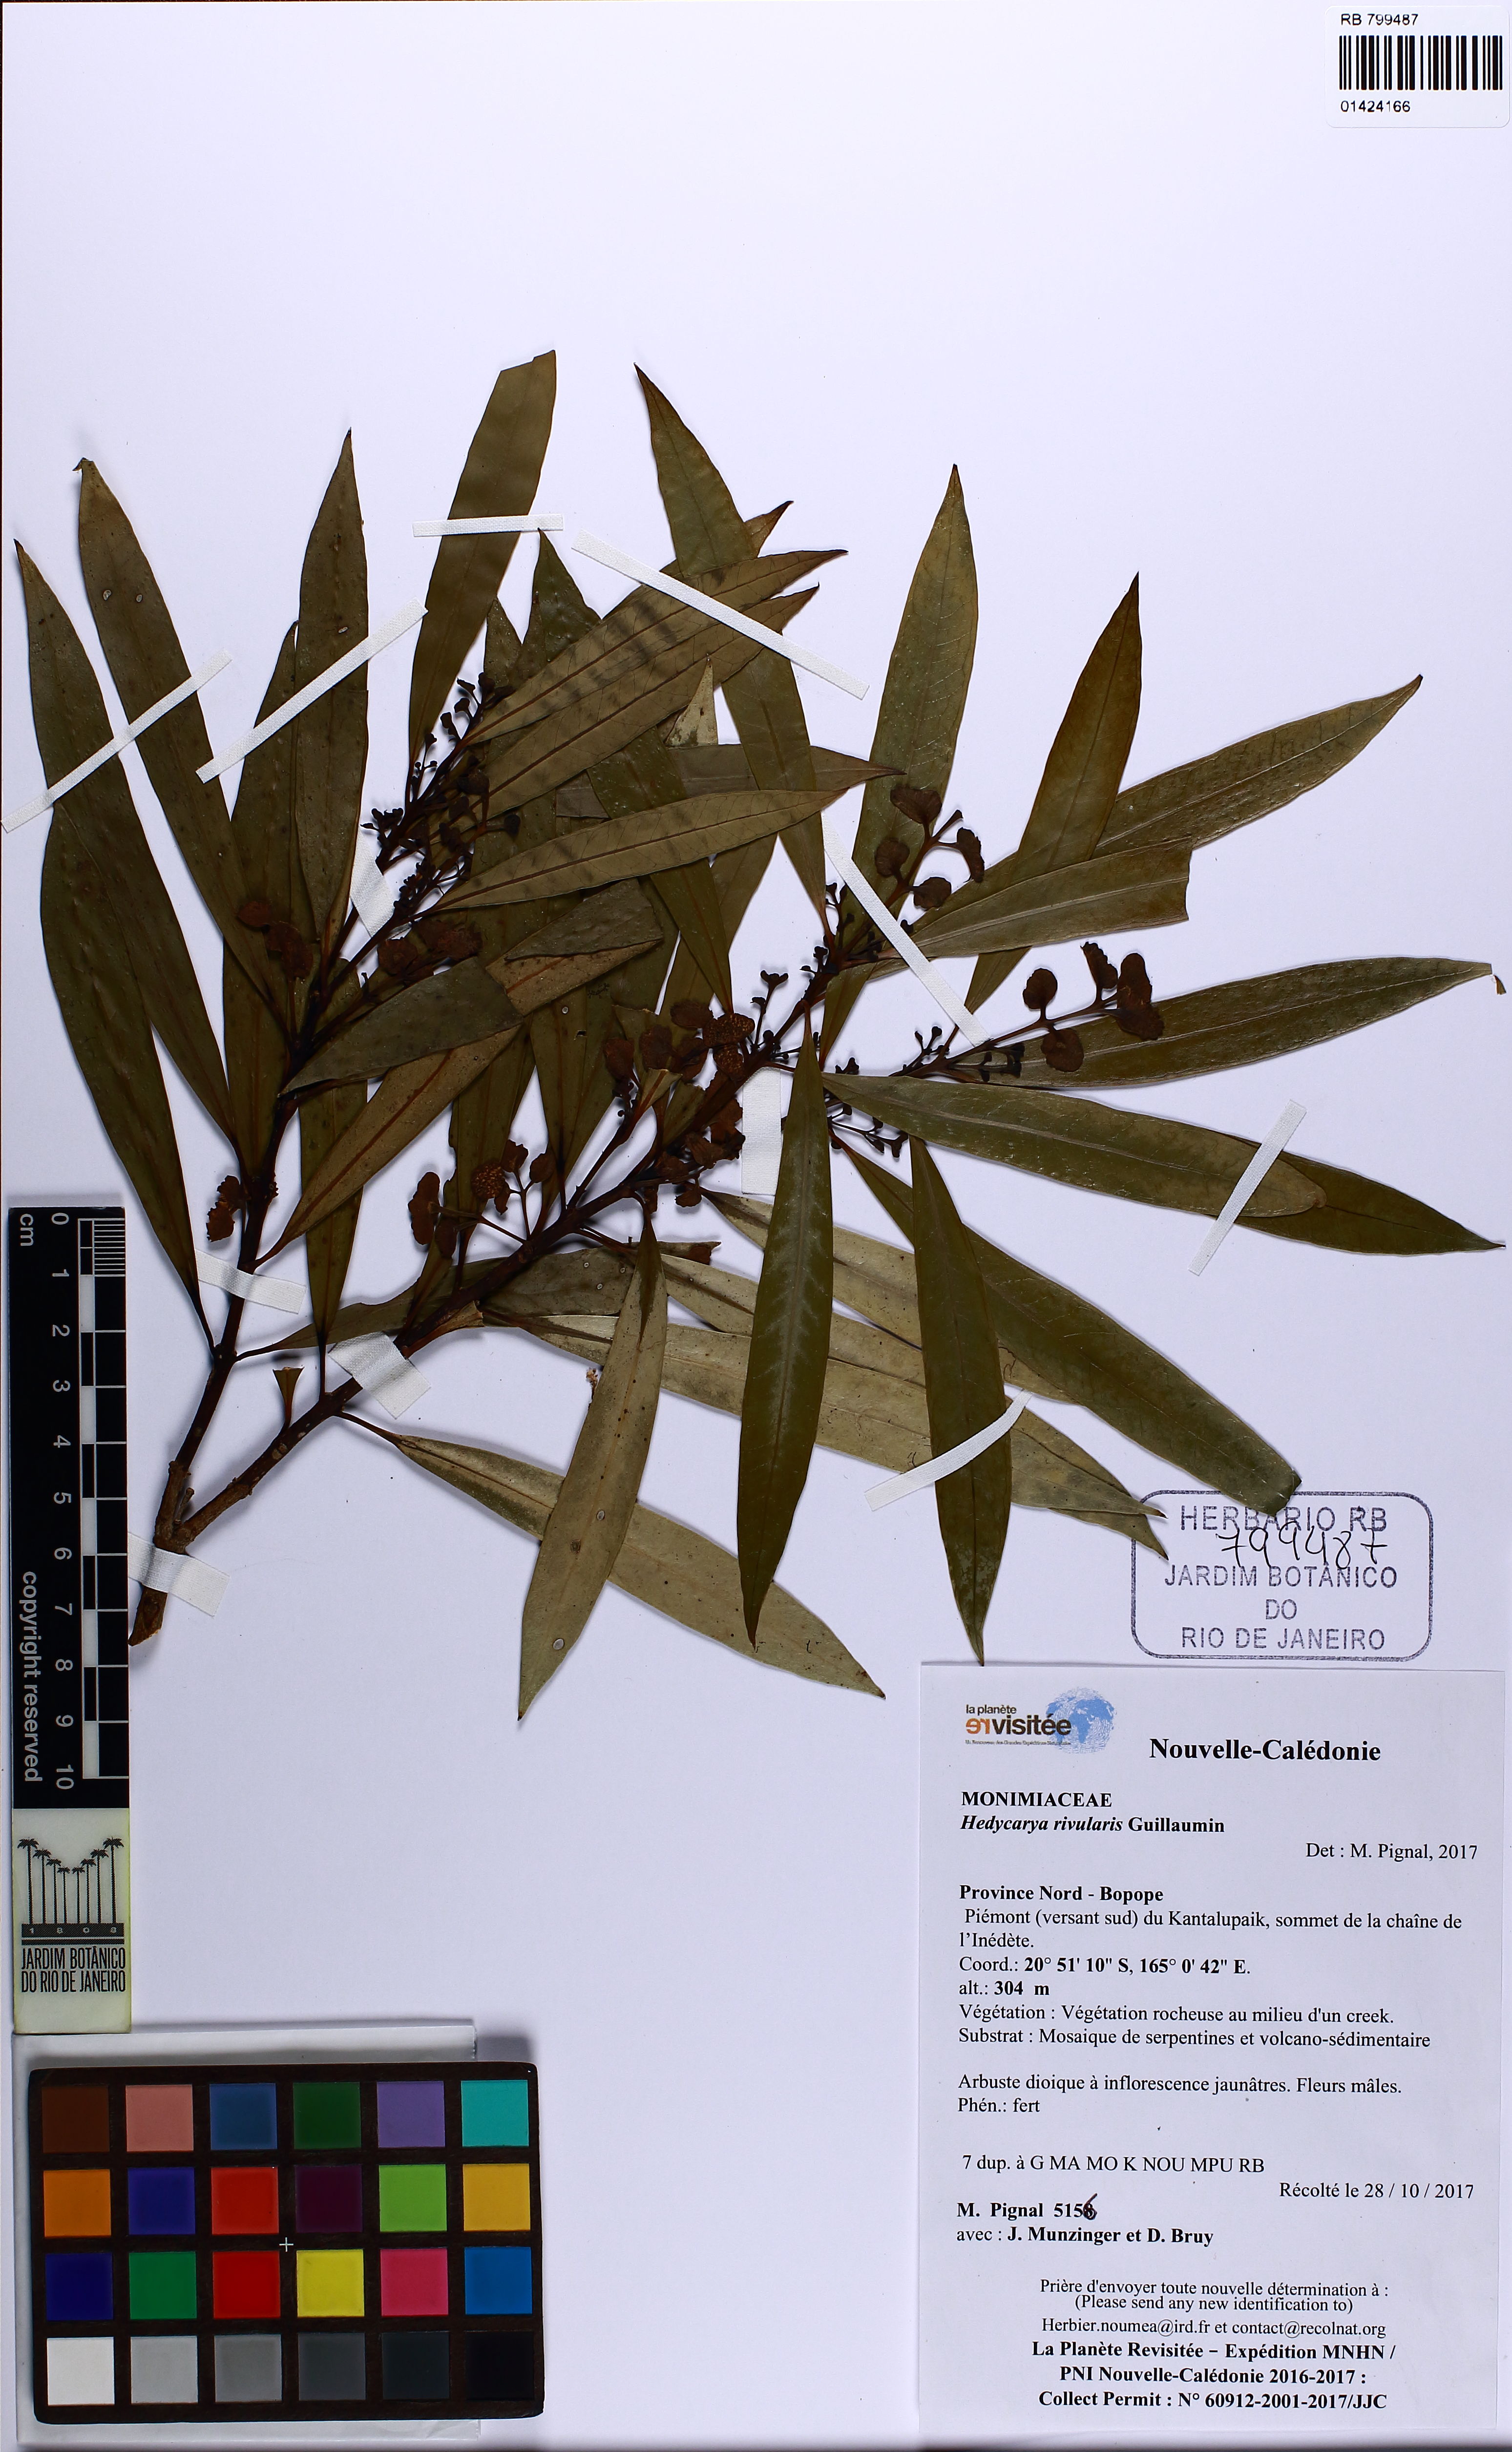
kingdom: Plantae
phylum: Tracheophyta
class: Magnoliopsida
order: Laurales
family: Monimiaceae
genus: Hedycarya
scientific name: Hedycarya rivularis
